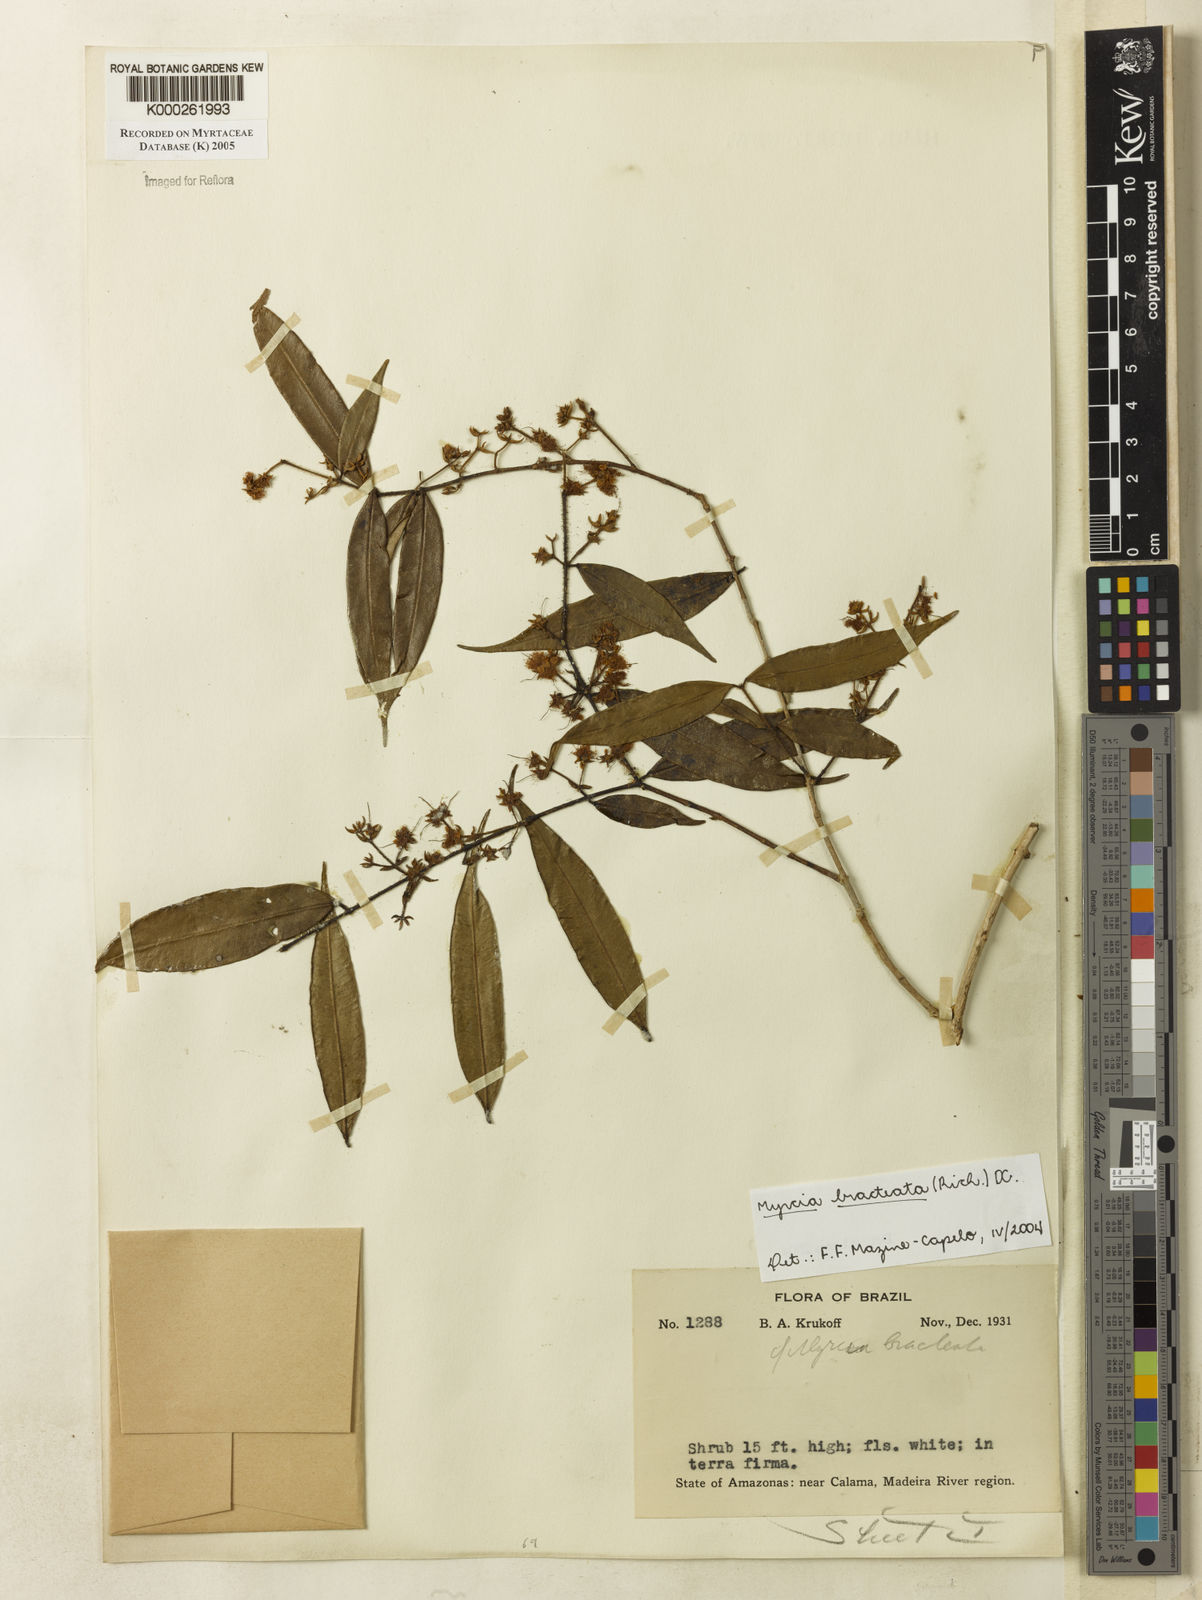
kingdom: Plantae
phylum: Tracheophyta
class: Magnoliopsida
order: Myrtales
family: Myrtaceae
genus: Myrcia
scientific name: Myrcia bracteata
